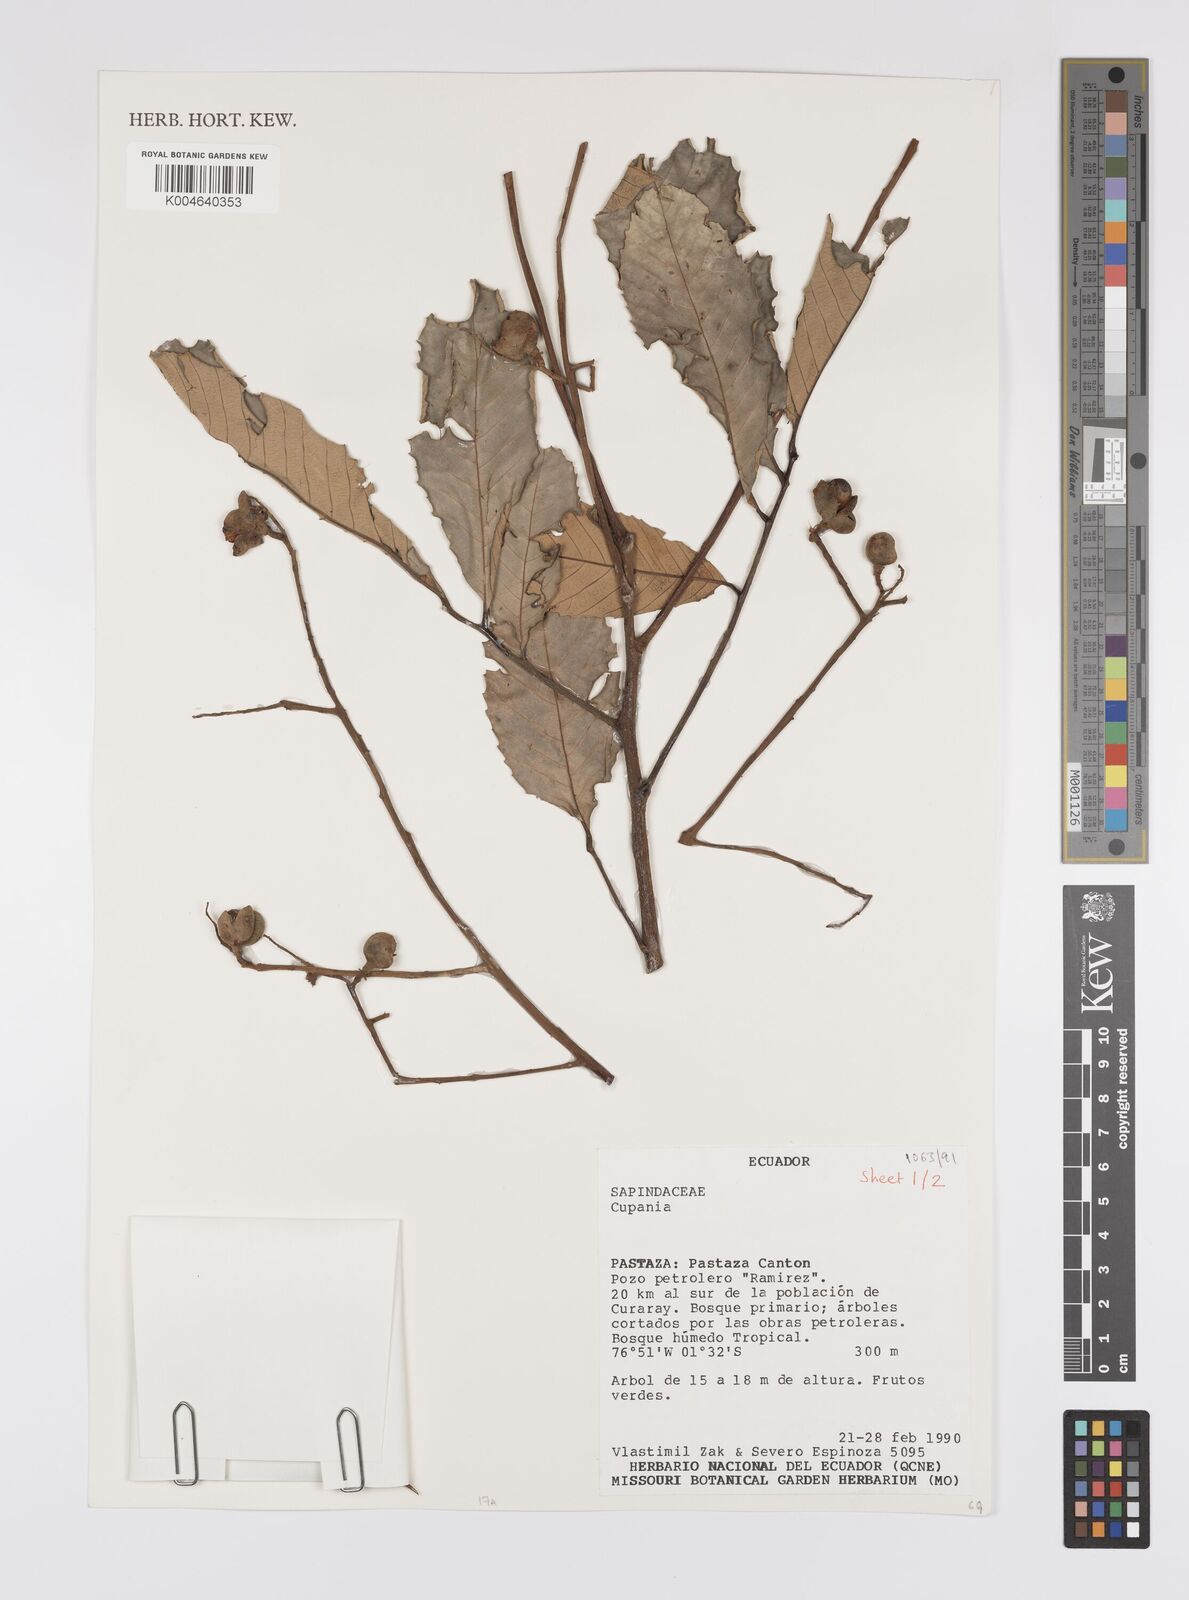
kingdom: Plantae
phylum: Tracheophyta
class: Magnoliopsida
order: Sapindales
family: Sapindaceae
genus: Cupania
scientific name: Cupania
